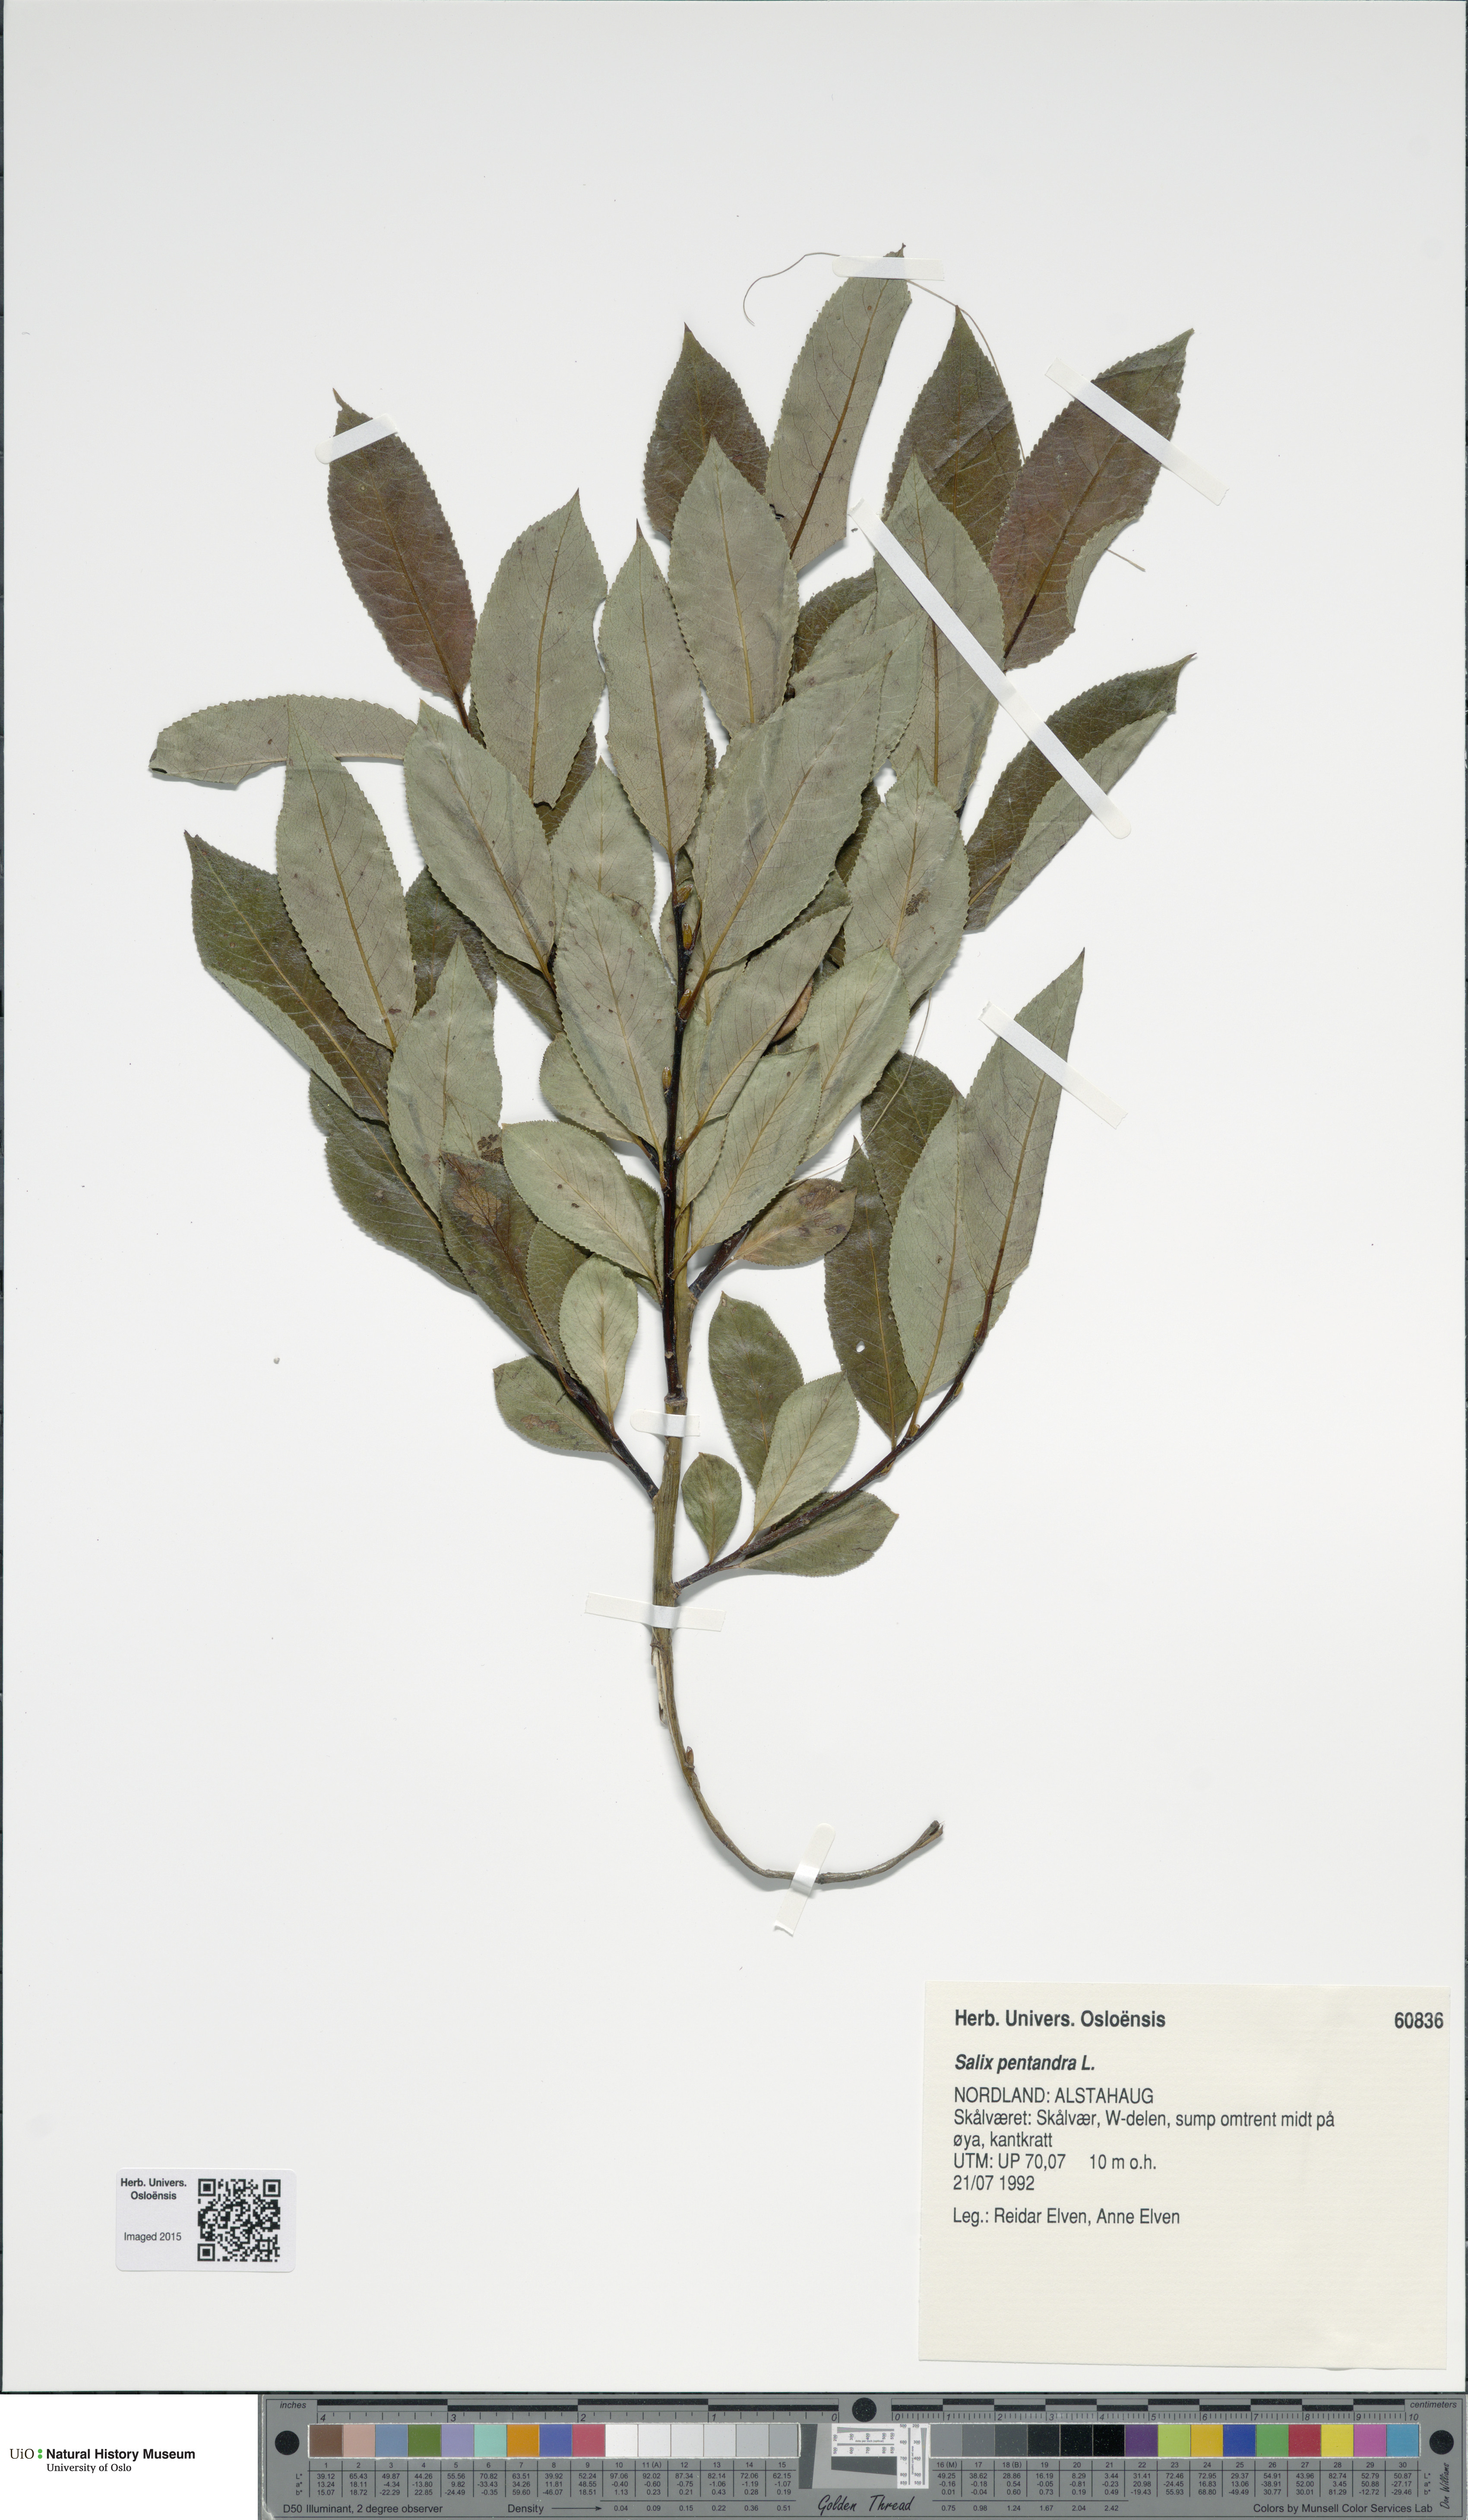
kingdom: Plantae
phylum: Tracheophyta
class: Magnoliopsida
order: Malpighiales
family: Salicaceae
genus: Salix
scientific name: Salix pentandra
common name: Bay willow
